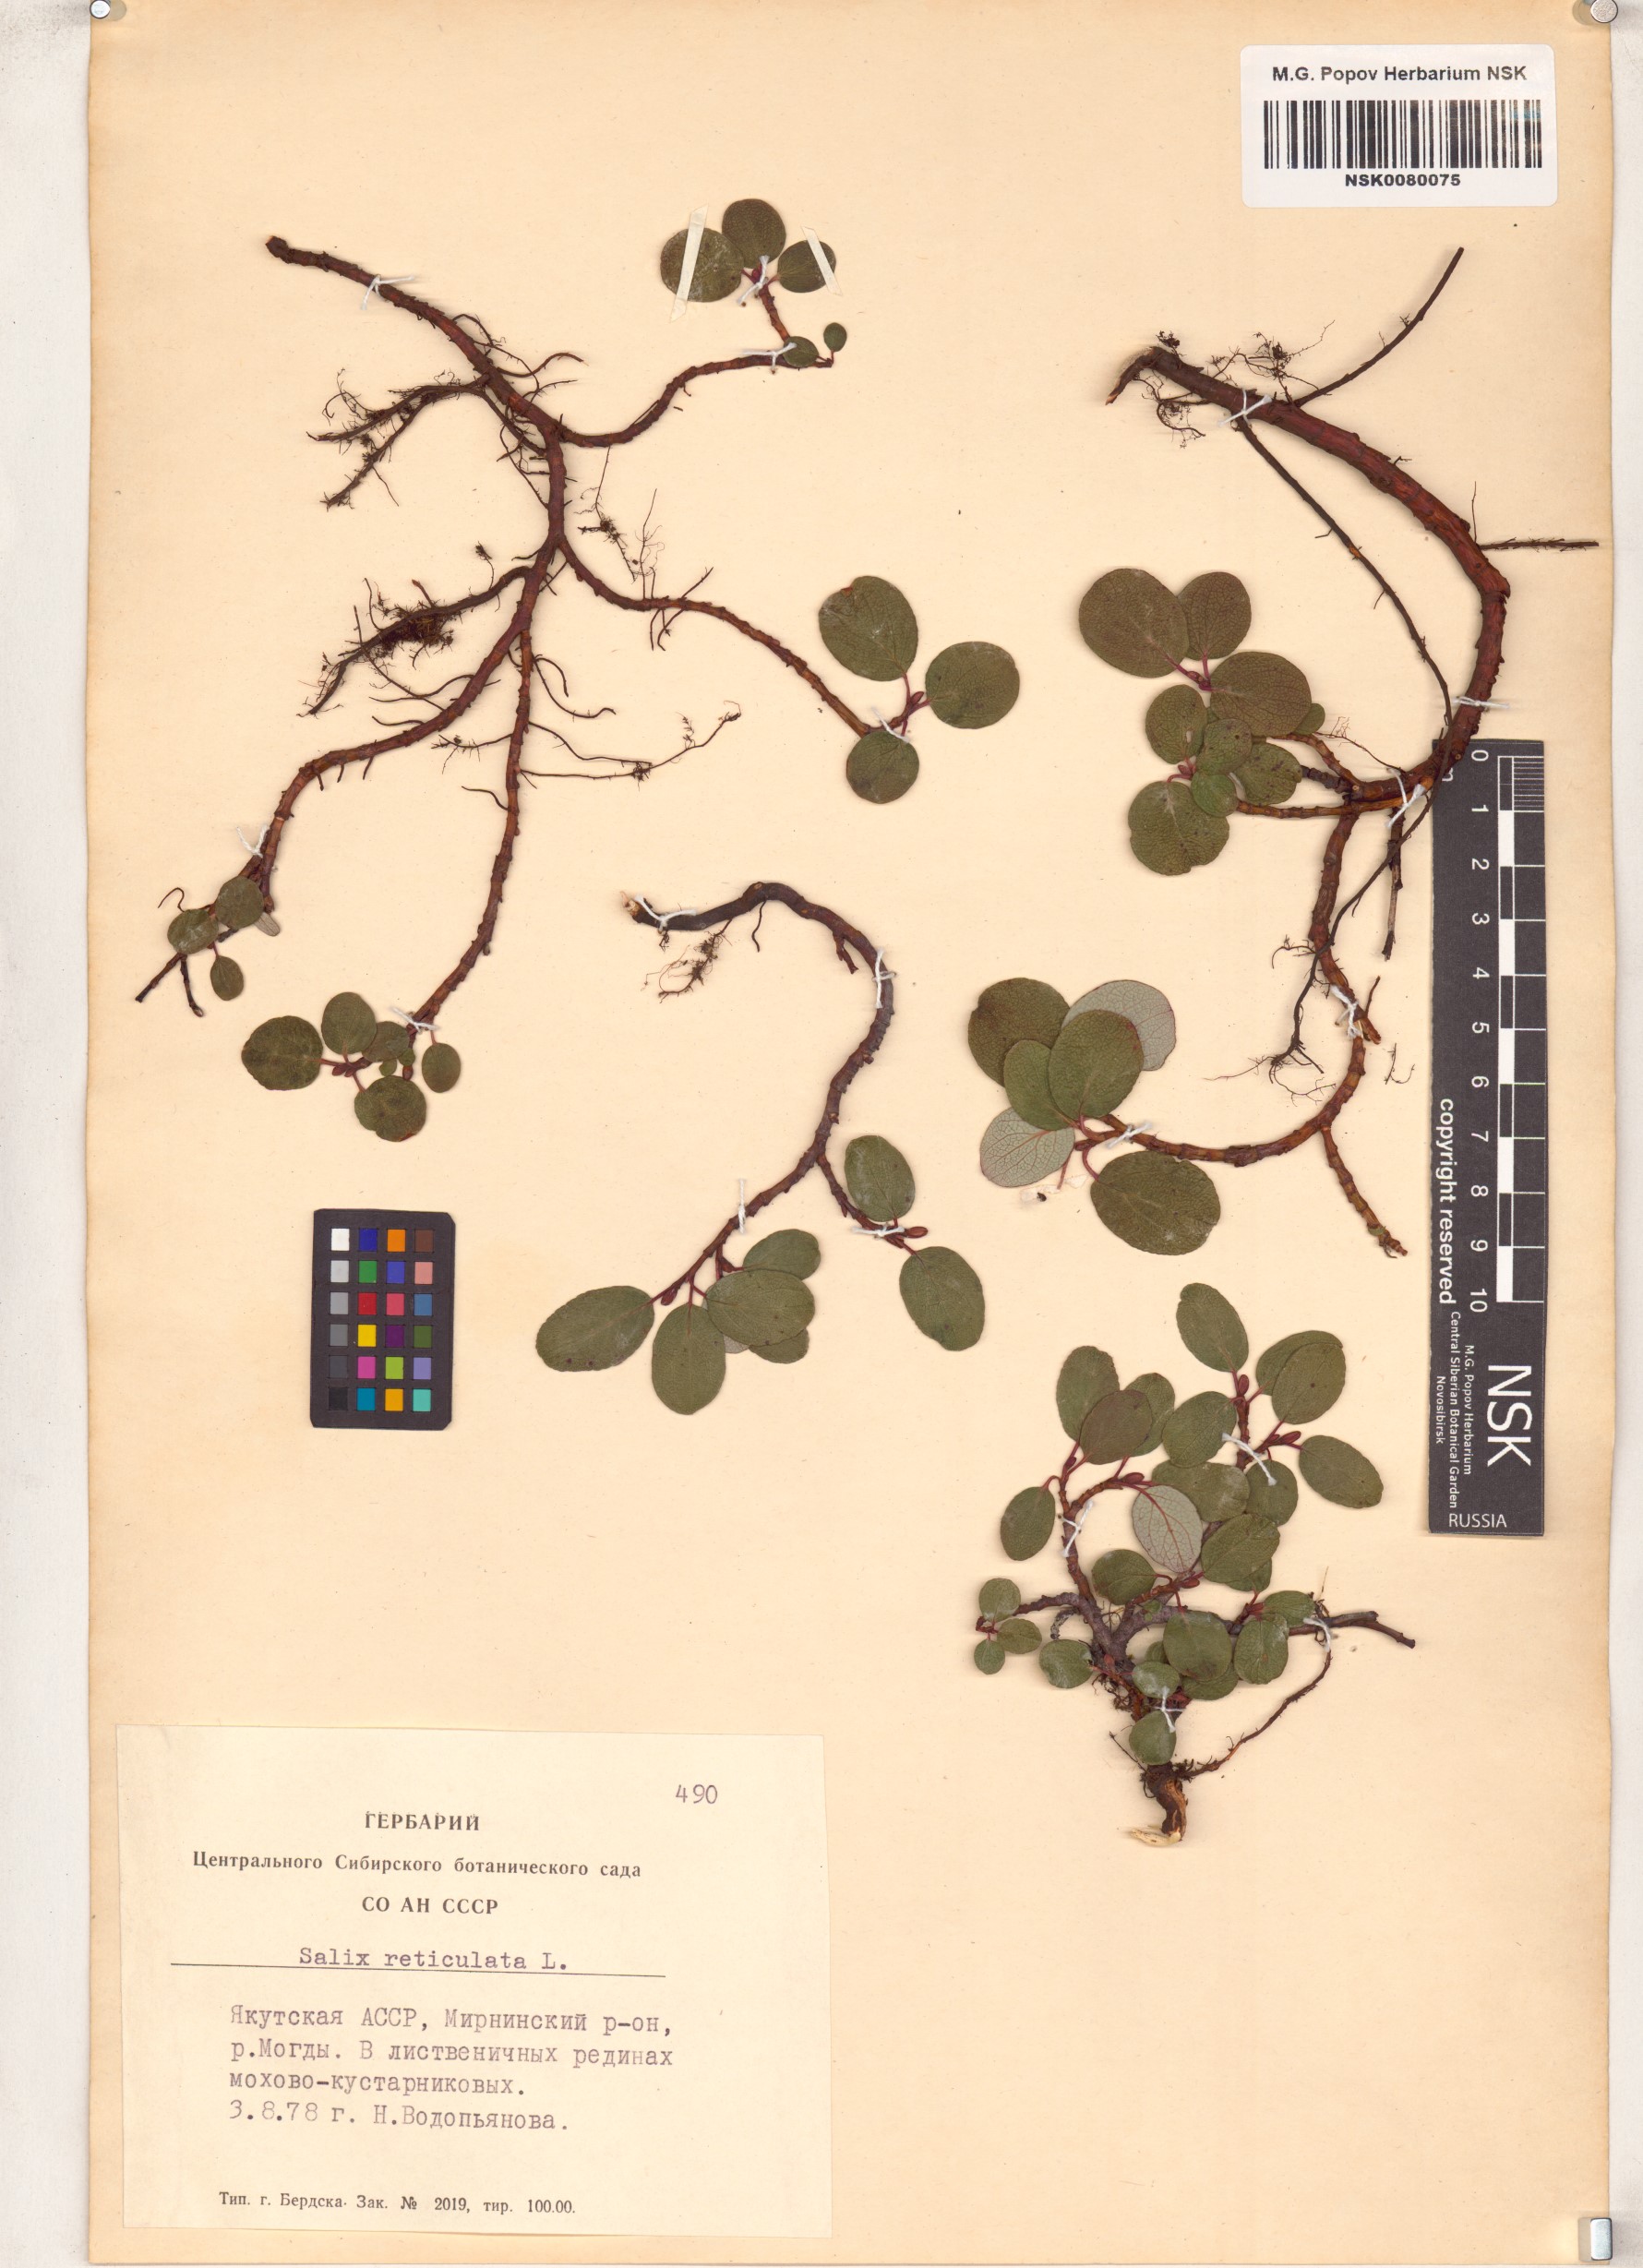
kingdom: Plantae
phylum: Tracheophyta
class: Magnoliopsida
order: Malpighiales
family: Salicaceae
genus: Salix
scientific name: Salix reticulata
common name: Net-leaved willow
